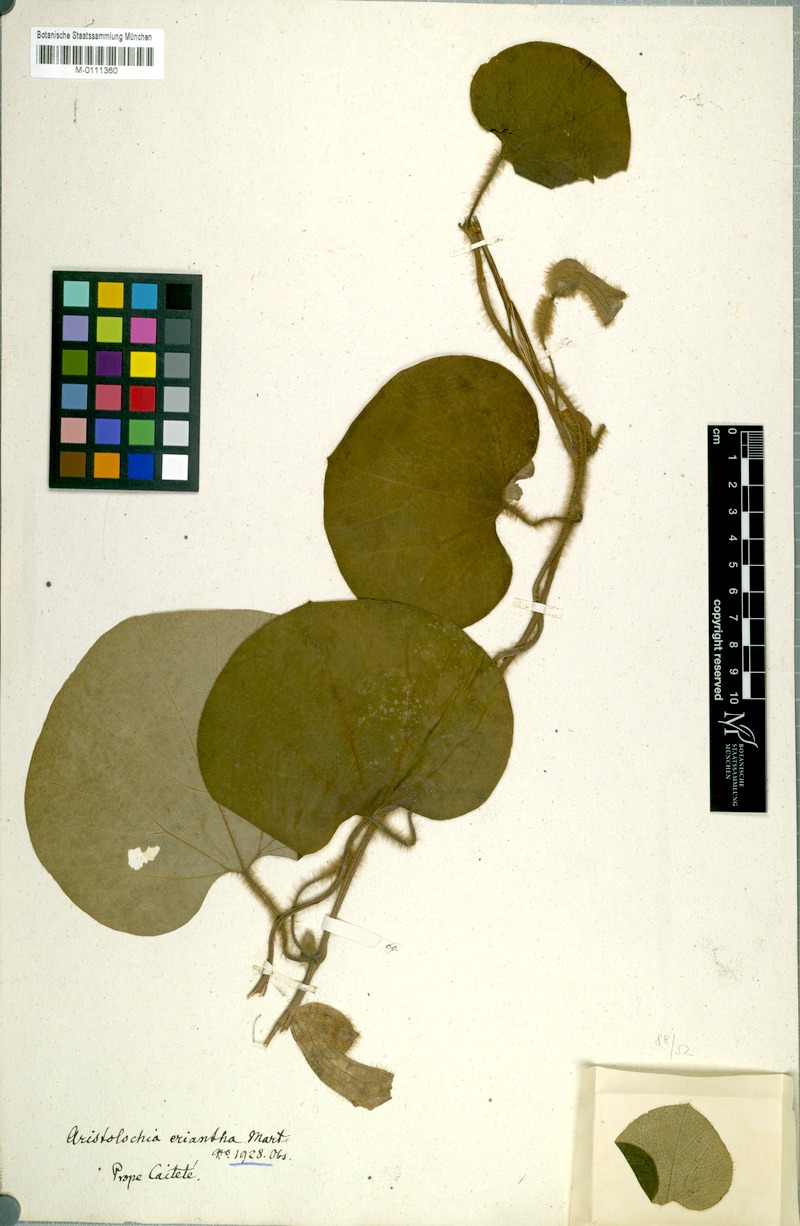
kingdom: Plantae
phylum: Tracheophyta
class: Magnoliopsida
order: Piperales
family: Aristolochiaceae
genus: Aristolochia
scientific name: Aristolochia eriantha
